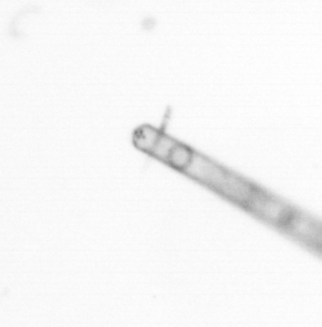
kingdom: Chromista
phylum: Ochrophyta
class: Bacillariophyceae
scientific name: Bacillariophyceae
